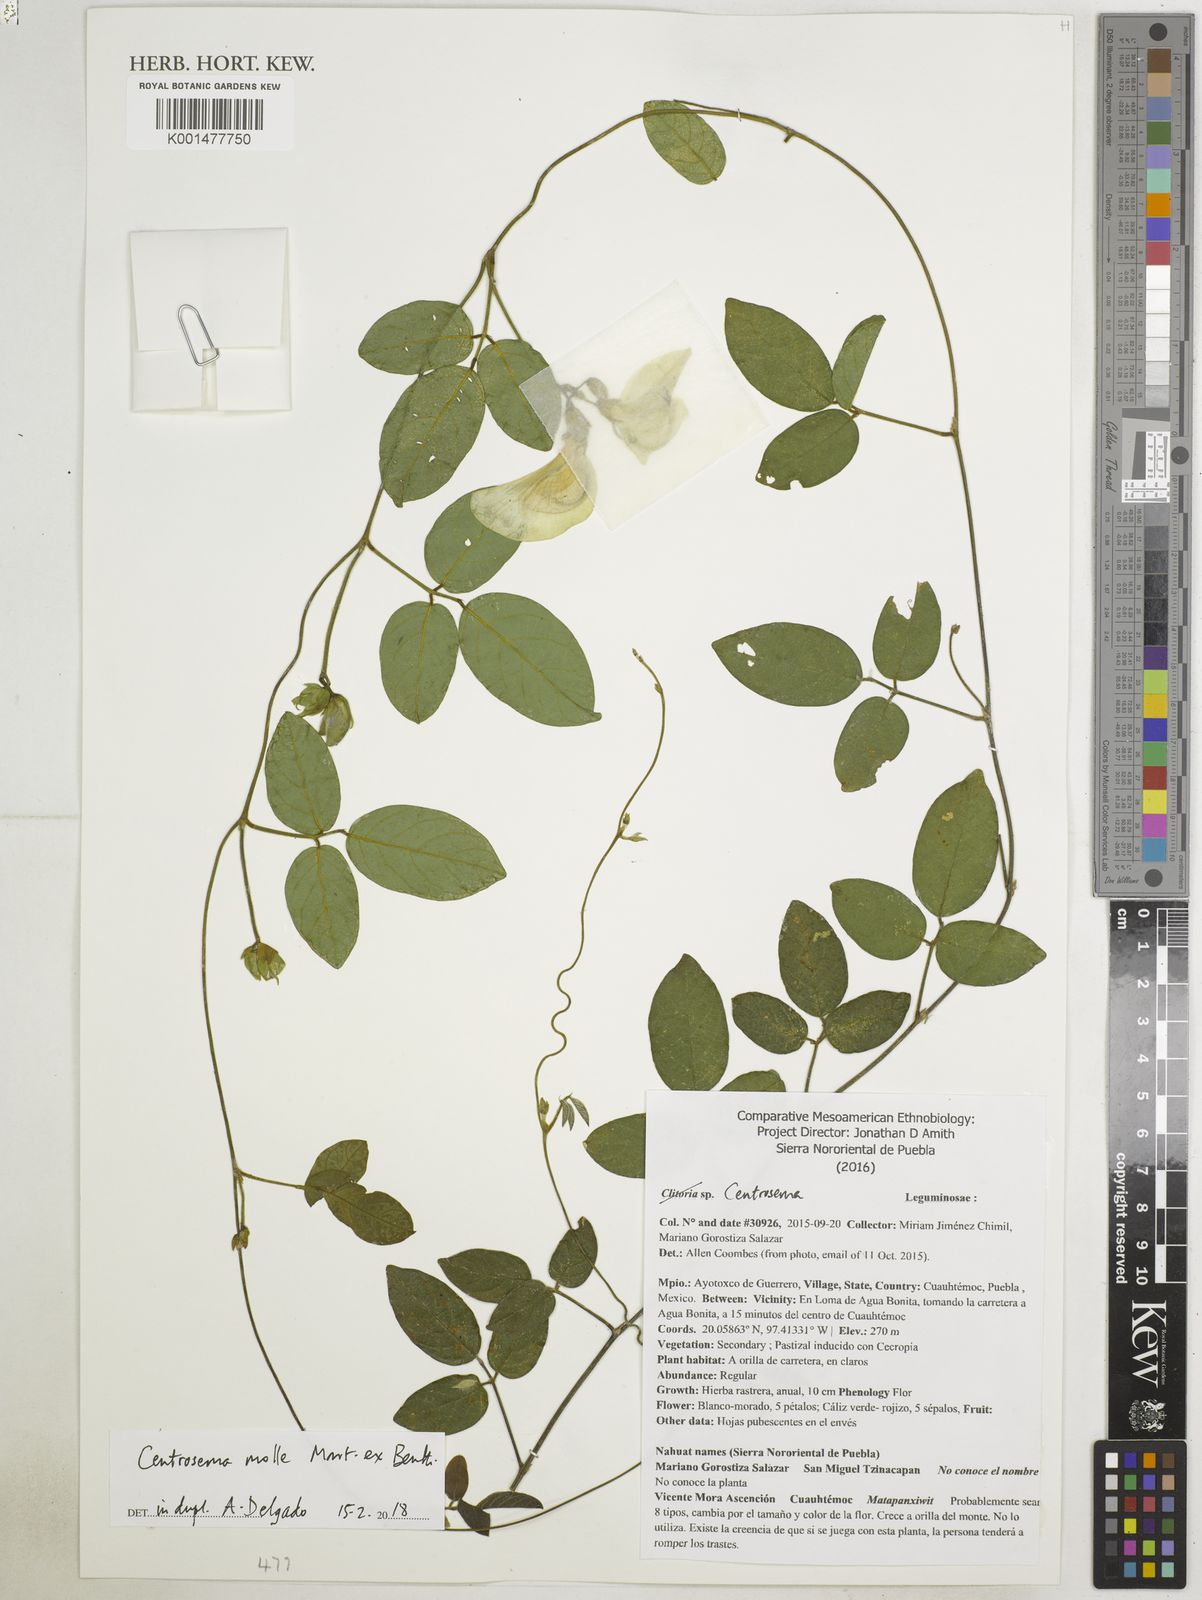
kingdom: Plantae
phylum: Tracheophyta
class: Magnoliopsida
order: Fabales
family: Fabaceae
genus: Centrosema
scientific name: Centrosema molle
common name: Soft butterfly pea
